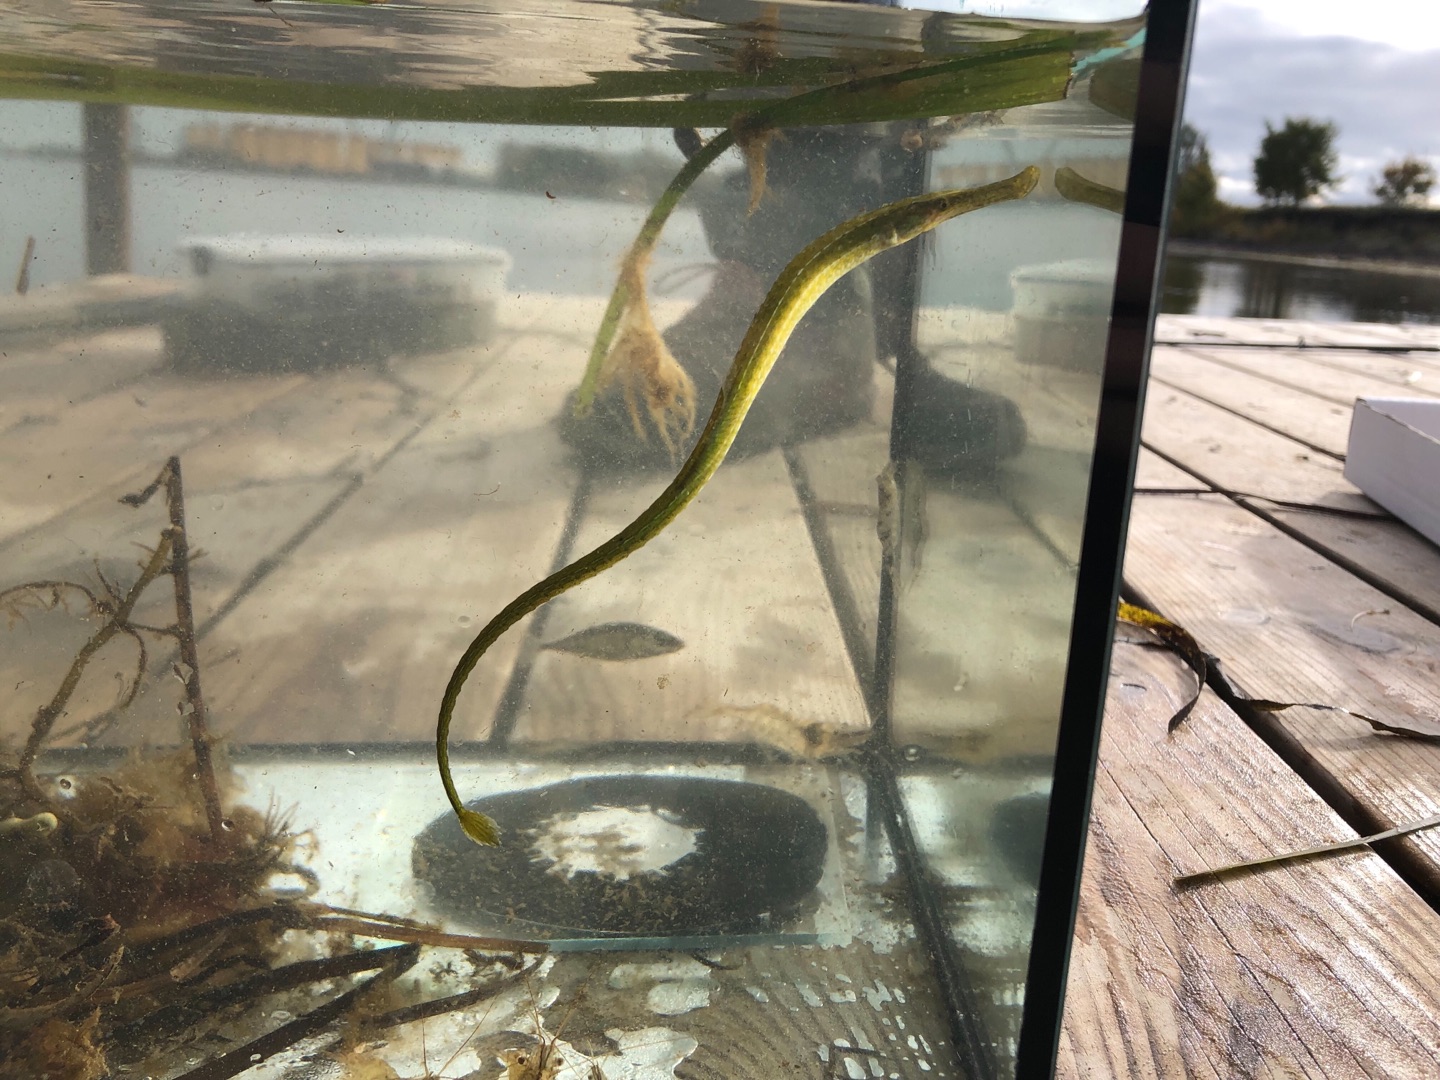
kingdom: Animalia
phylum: Chordata
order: Syngnathiformes
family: Syngnathidae
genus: Syngnathus
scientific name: Syngnathus typhle
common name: Almindelig tangnål
